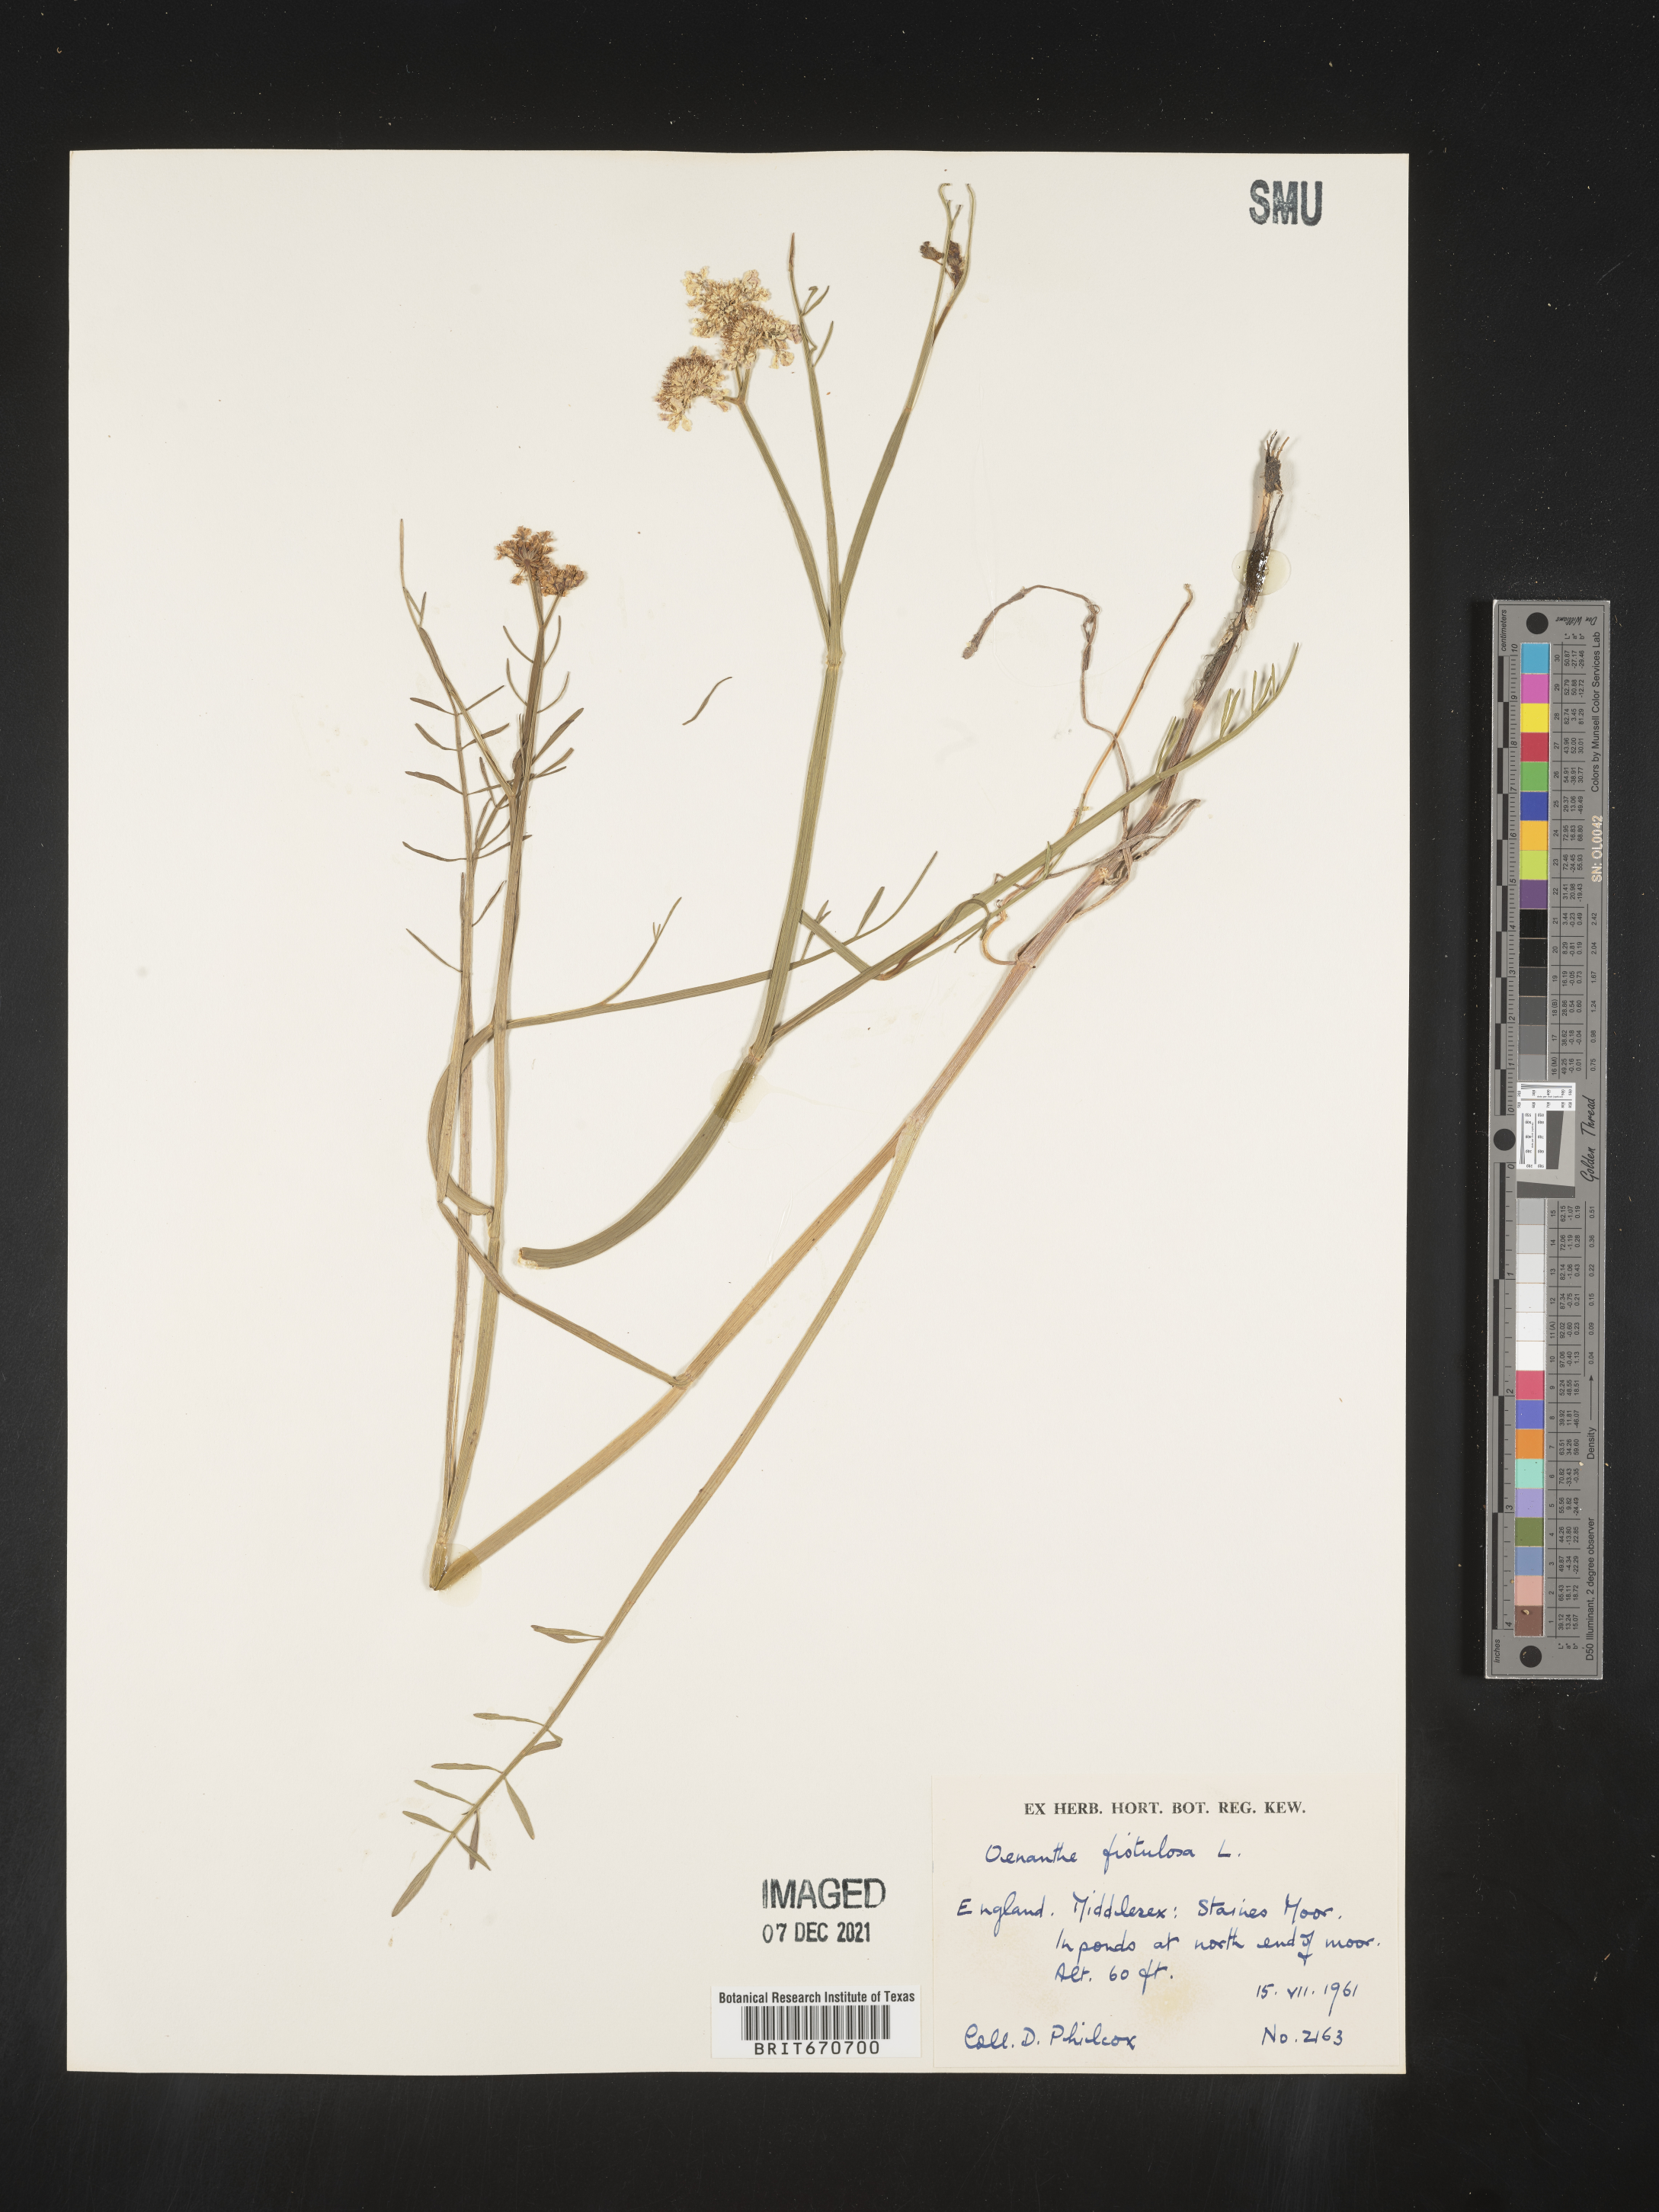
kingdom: Plantae
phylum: Tracheophyta
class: Magnoliopsida
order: Apiales
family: Apiaceae
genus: Oenanthe
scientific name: Oenanthe
